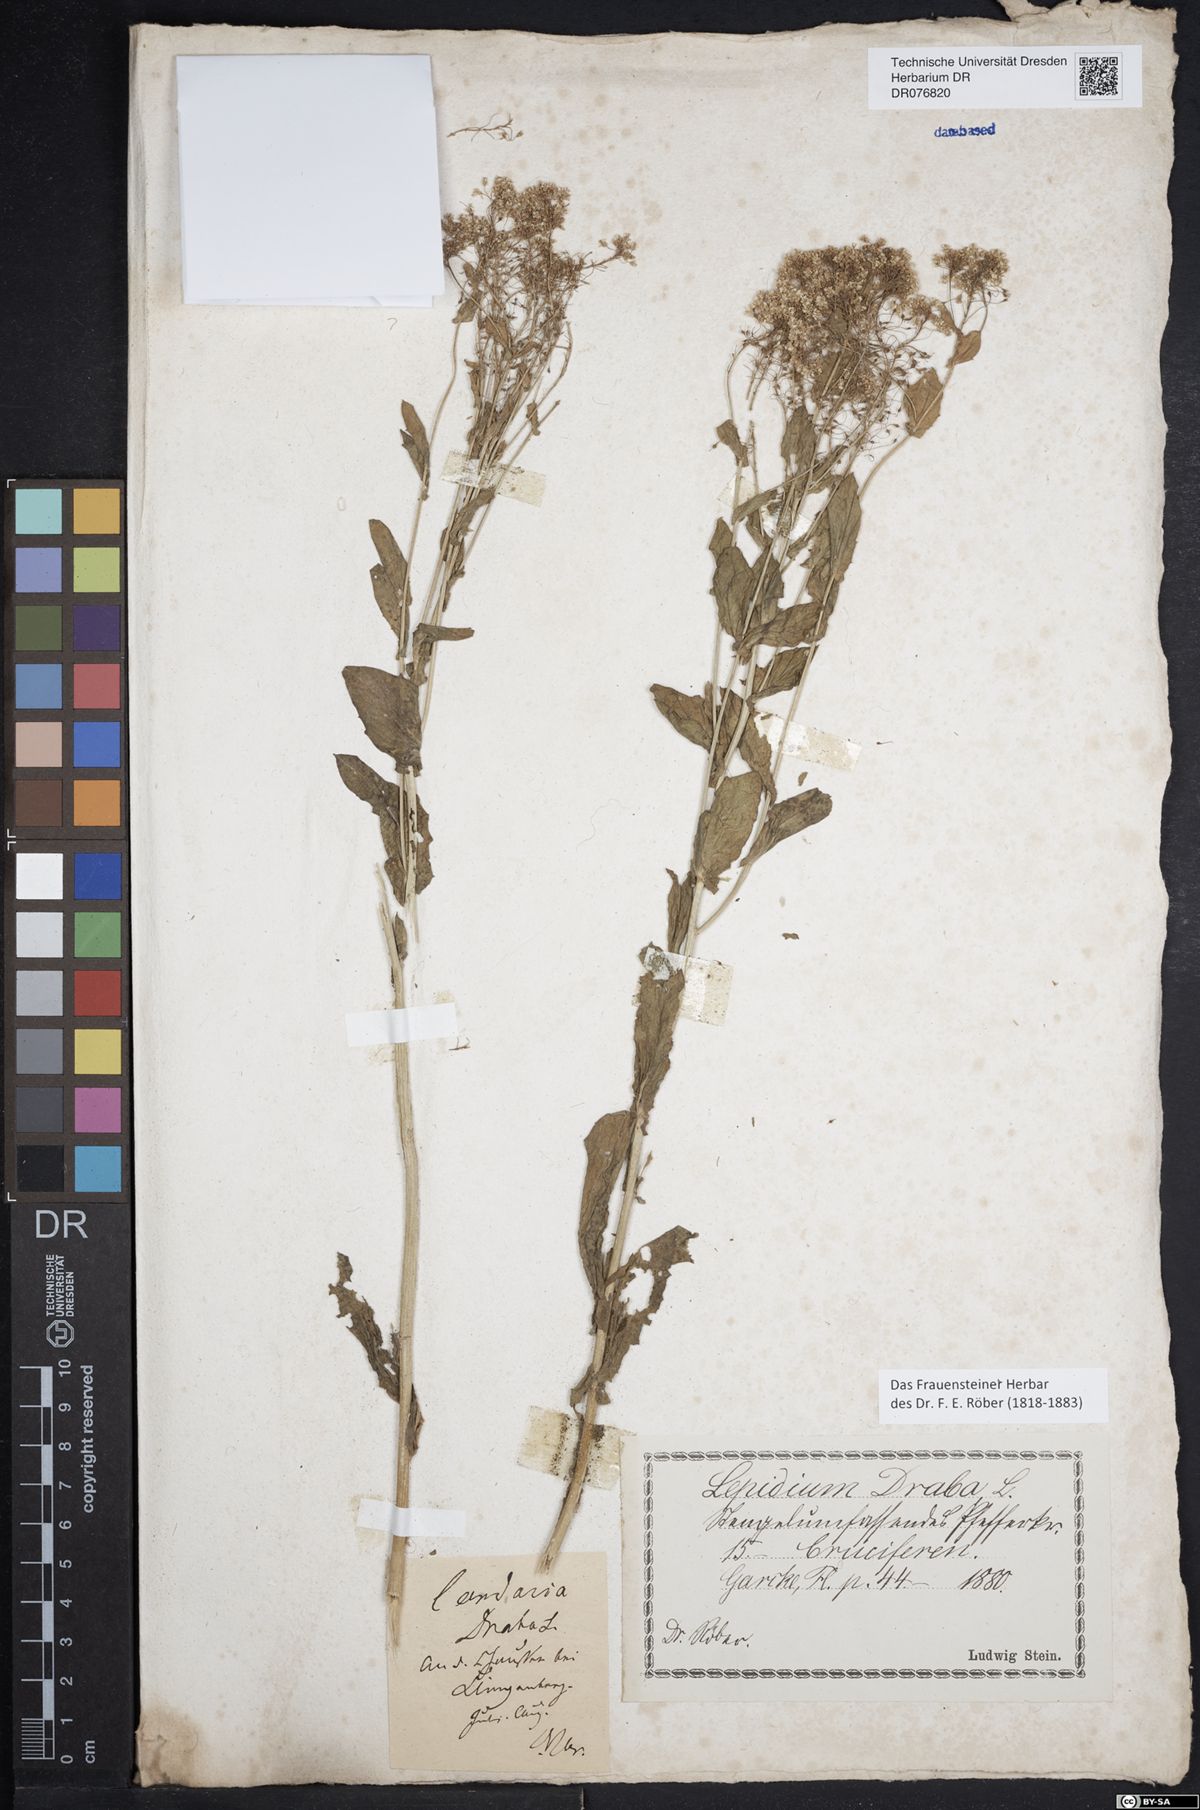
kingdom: Plantae
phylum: Tracheophyta
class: Magnoliopsida
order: Brassicales
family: Brassicaceae
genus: Lepidium
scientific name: Lepidium draba
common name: Hoary cress
